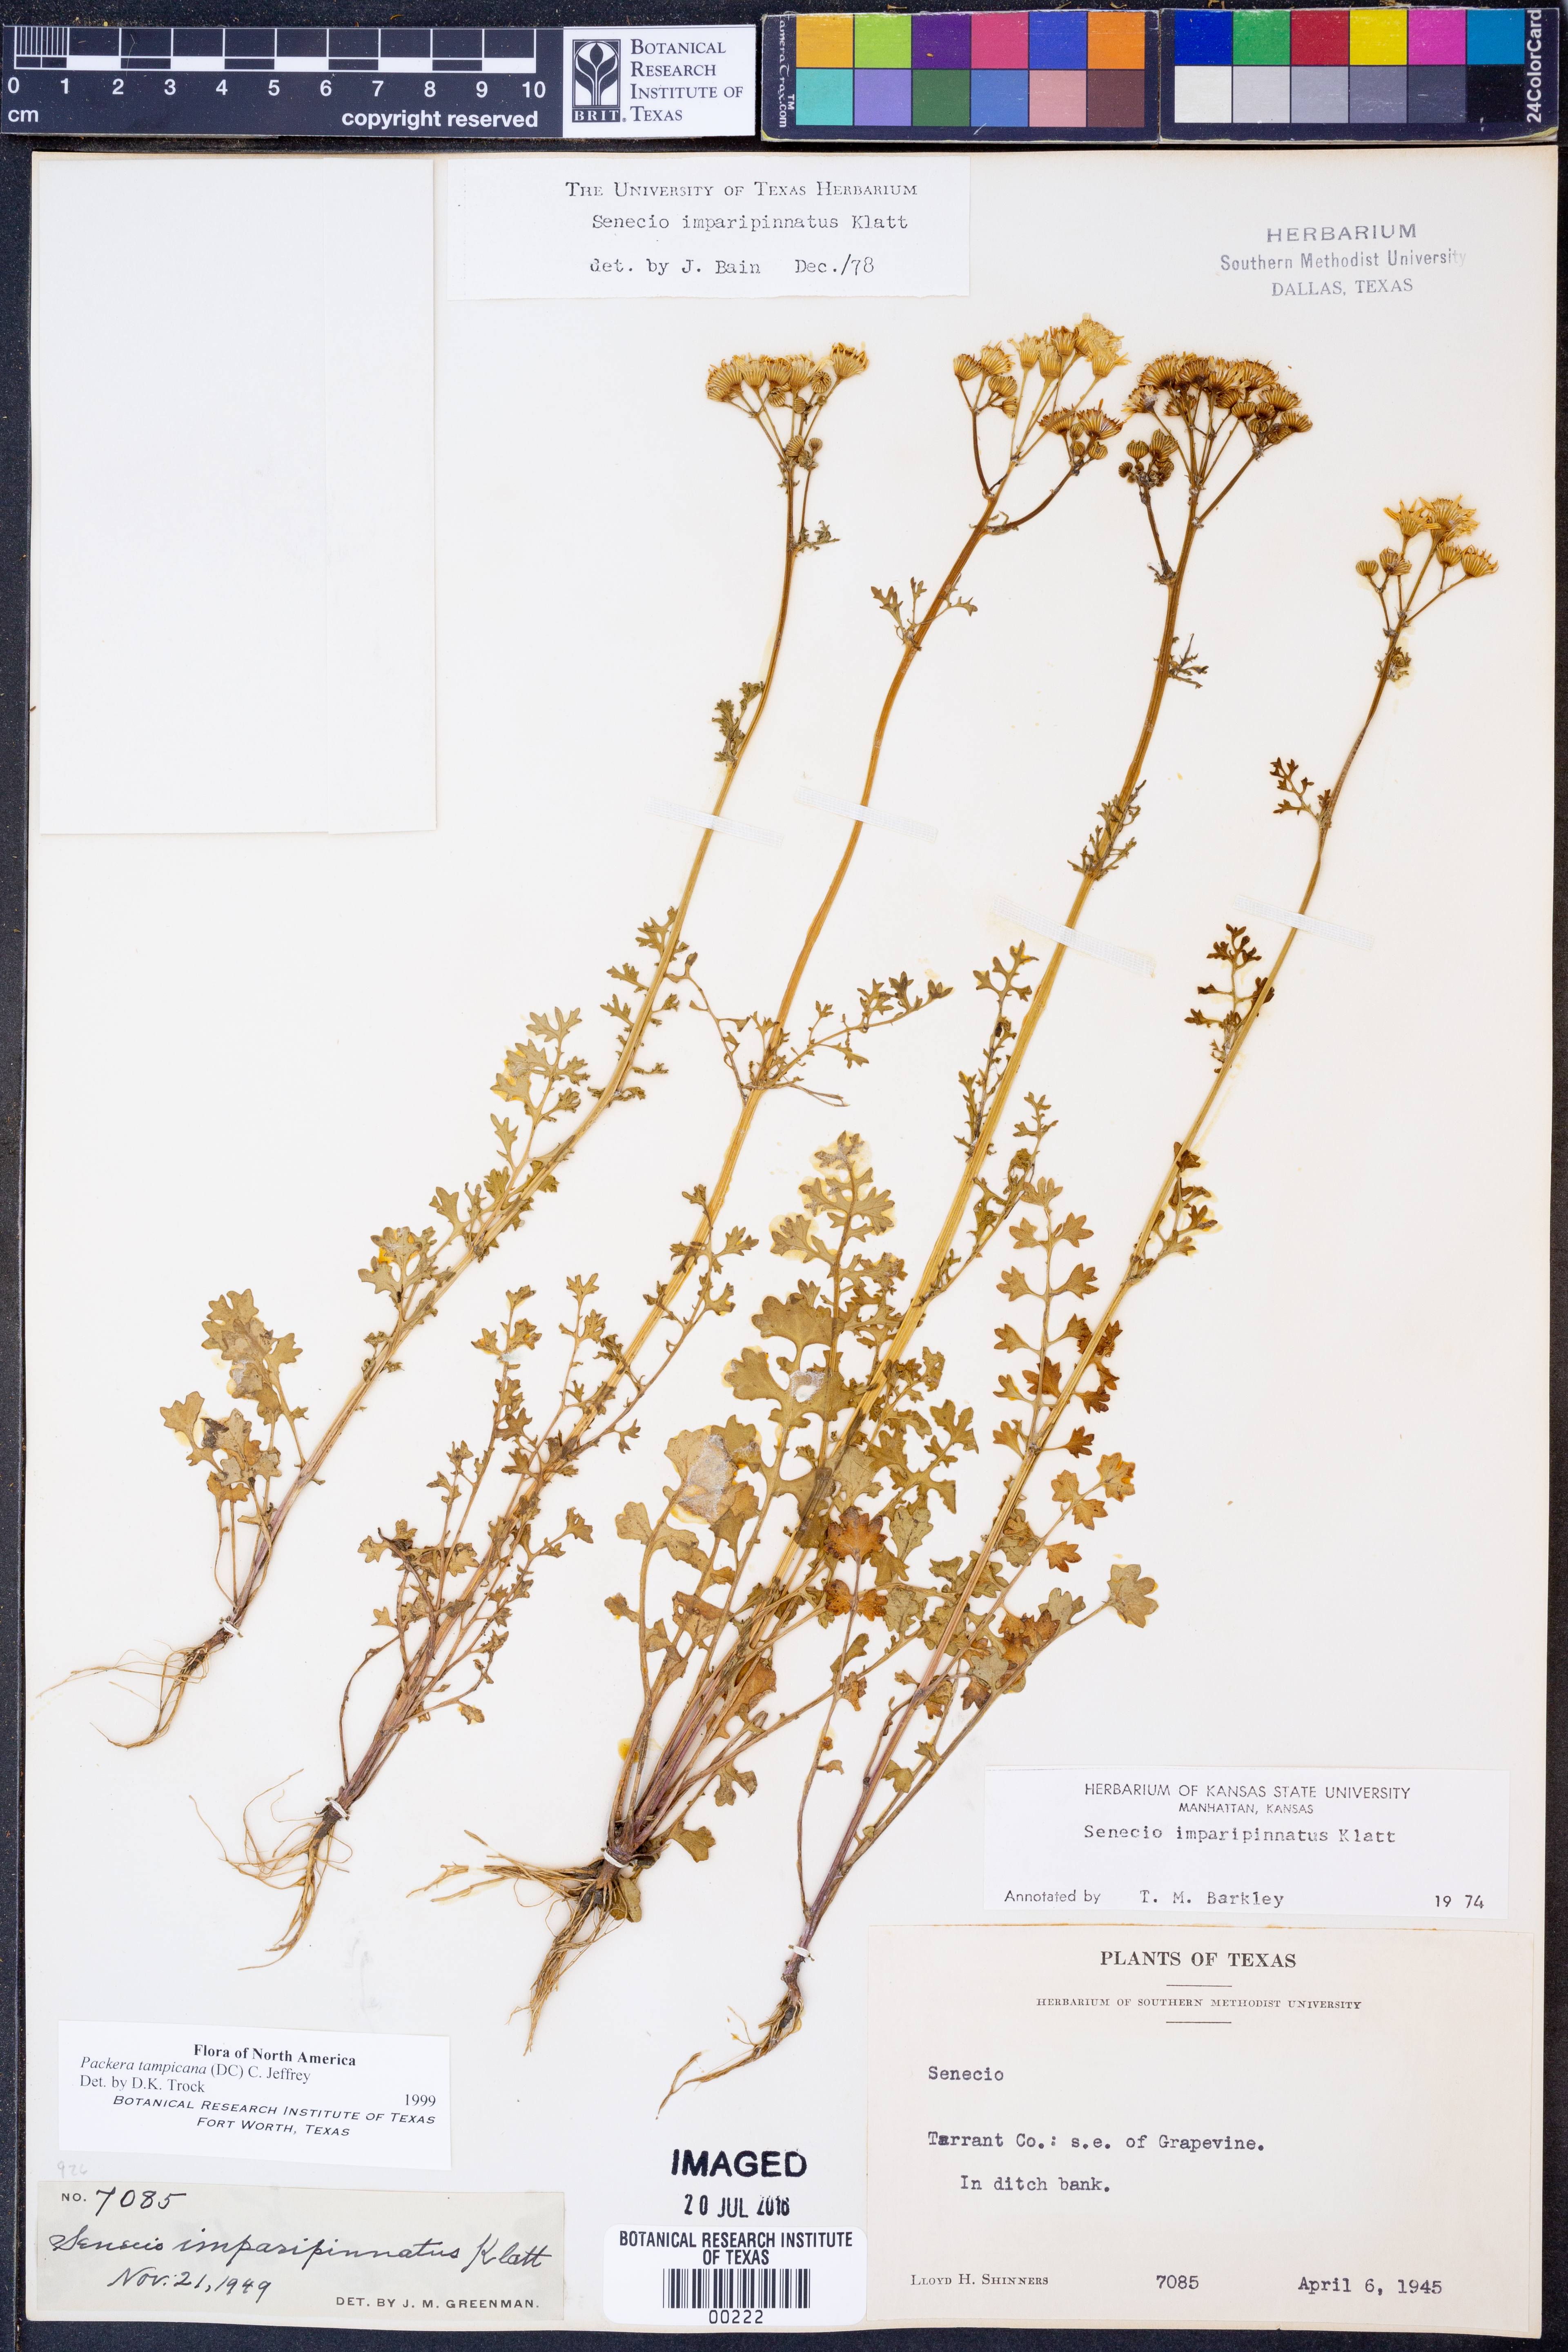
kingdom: Plantae
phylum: Tracheophyta
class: Magnoliopsida
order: Asterales
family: Asteraceae
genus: Packera
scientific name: Packera tampicana
